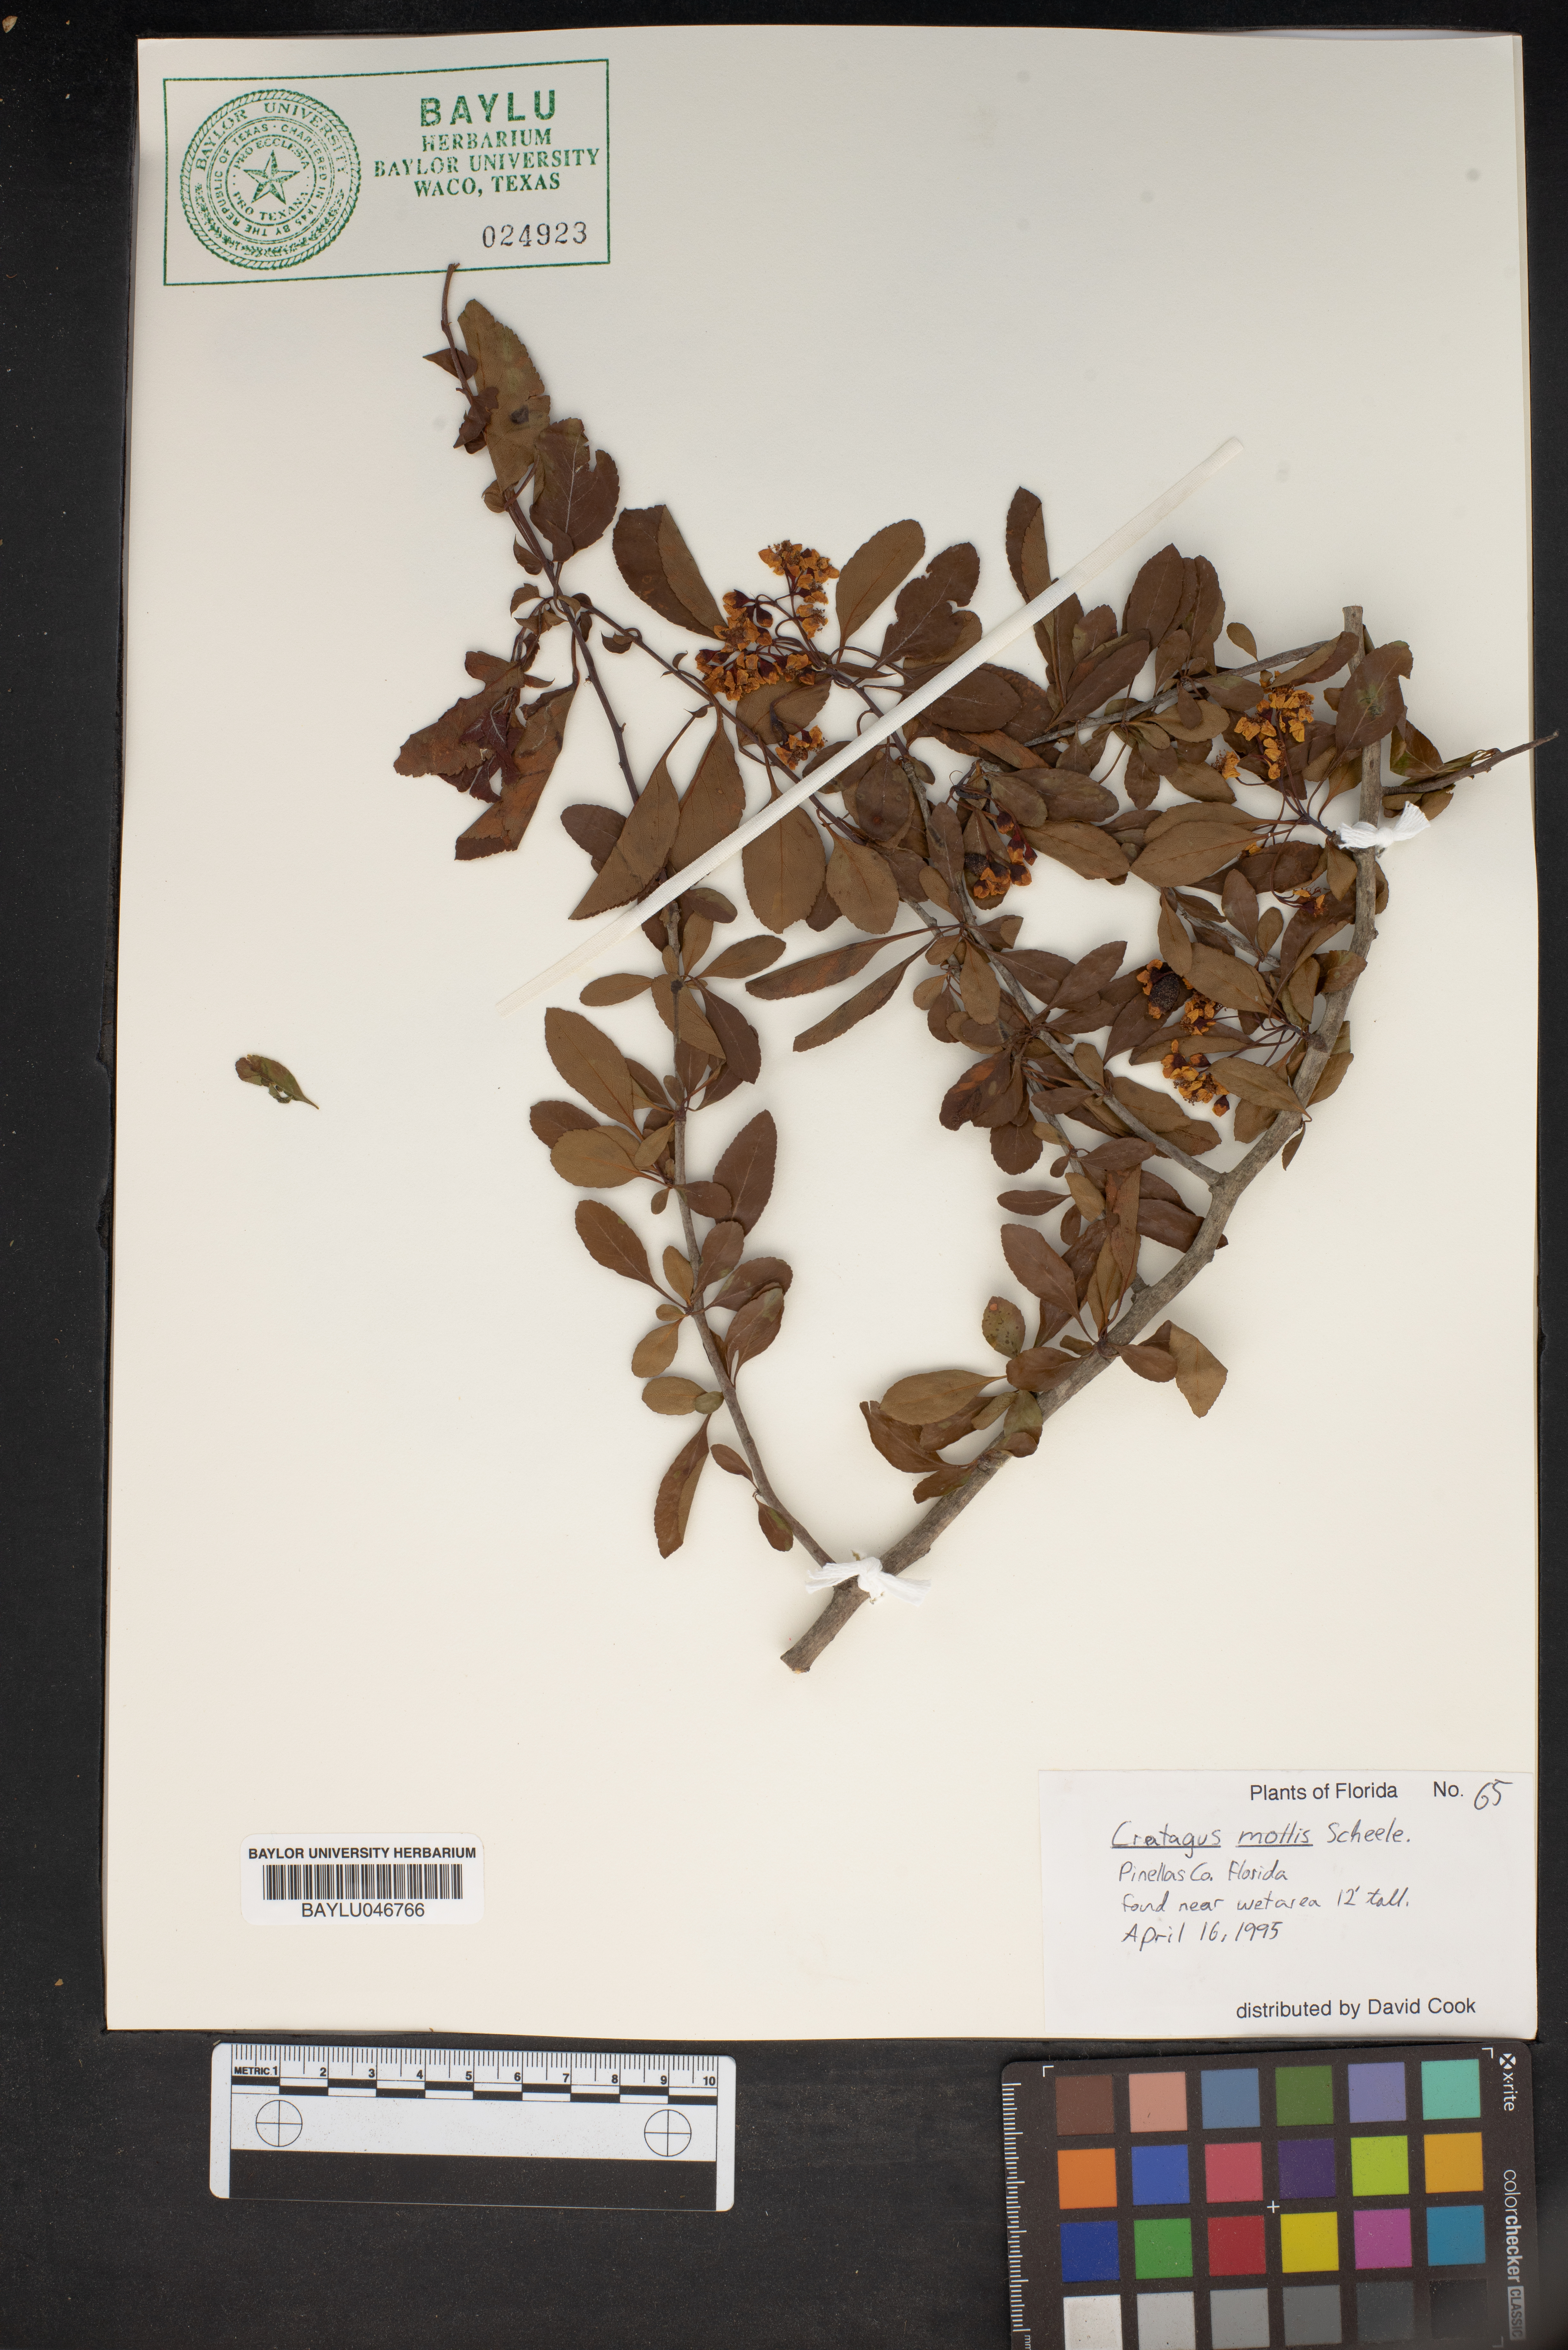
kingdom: Plantae
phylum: Tracheophyta
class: Magnoliopsida
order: Rosales
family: Rosaceae
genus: Crataegus
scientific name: Crataegus mollis
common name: Downy hawthorn
